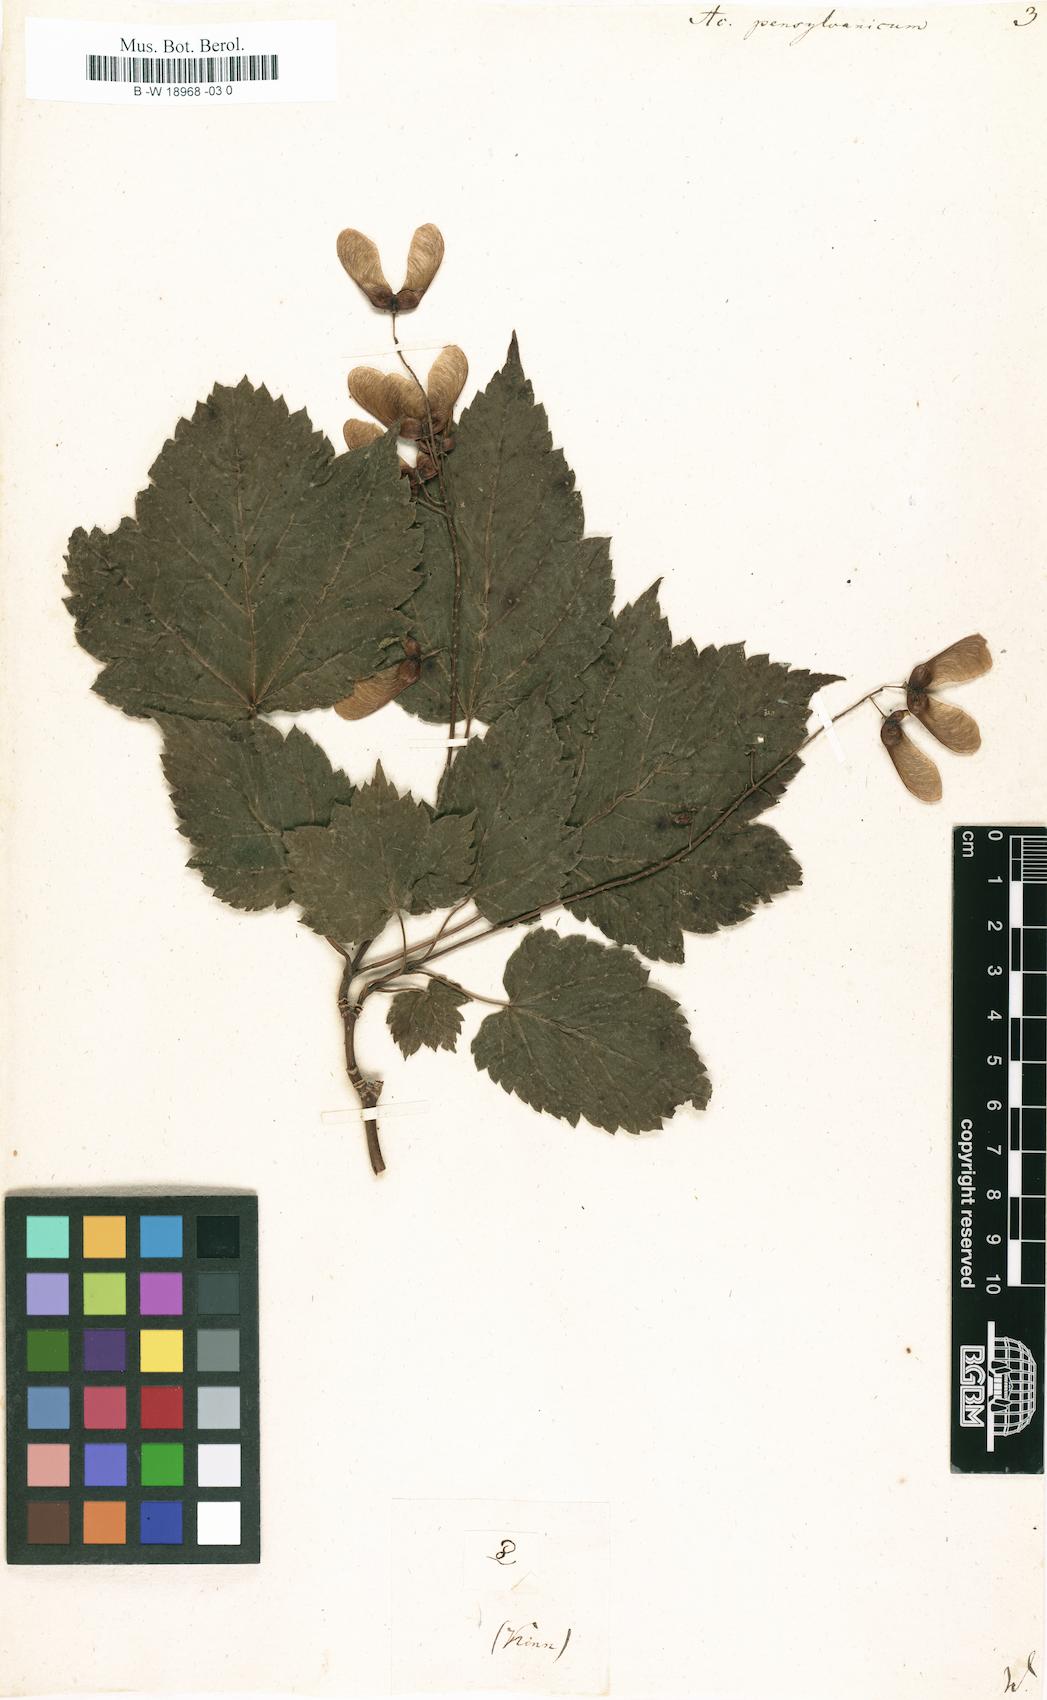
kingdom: Plantae
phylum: Tracheophyta
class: Magnoliopsida
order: Sapindales
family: Sapindaceae
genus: Acer
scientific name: Acer pensylvanicum
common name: Moosewood
